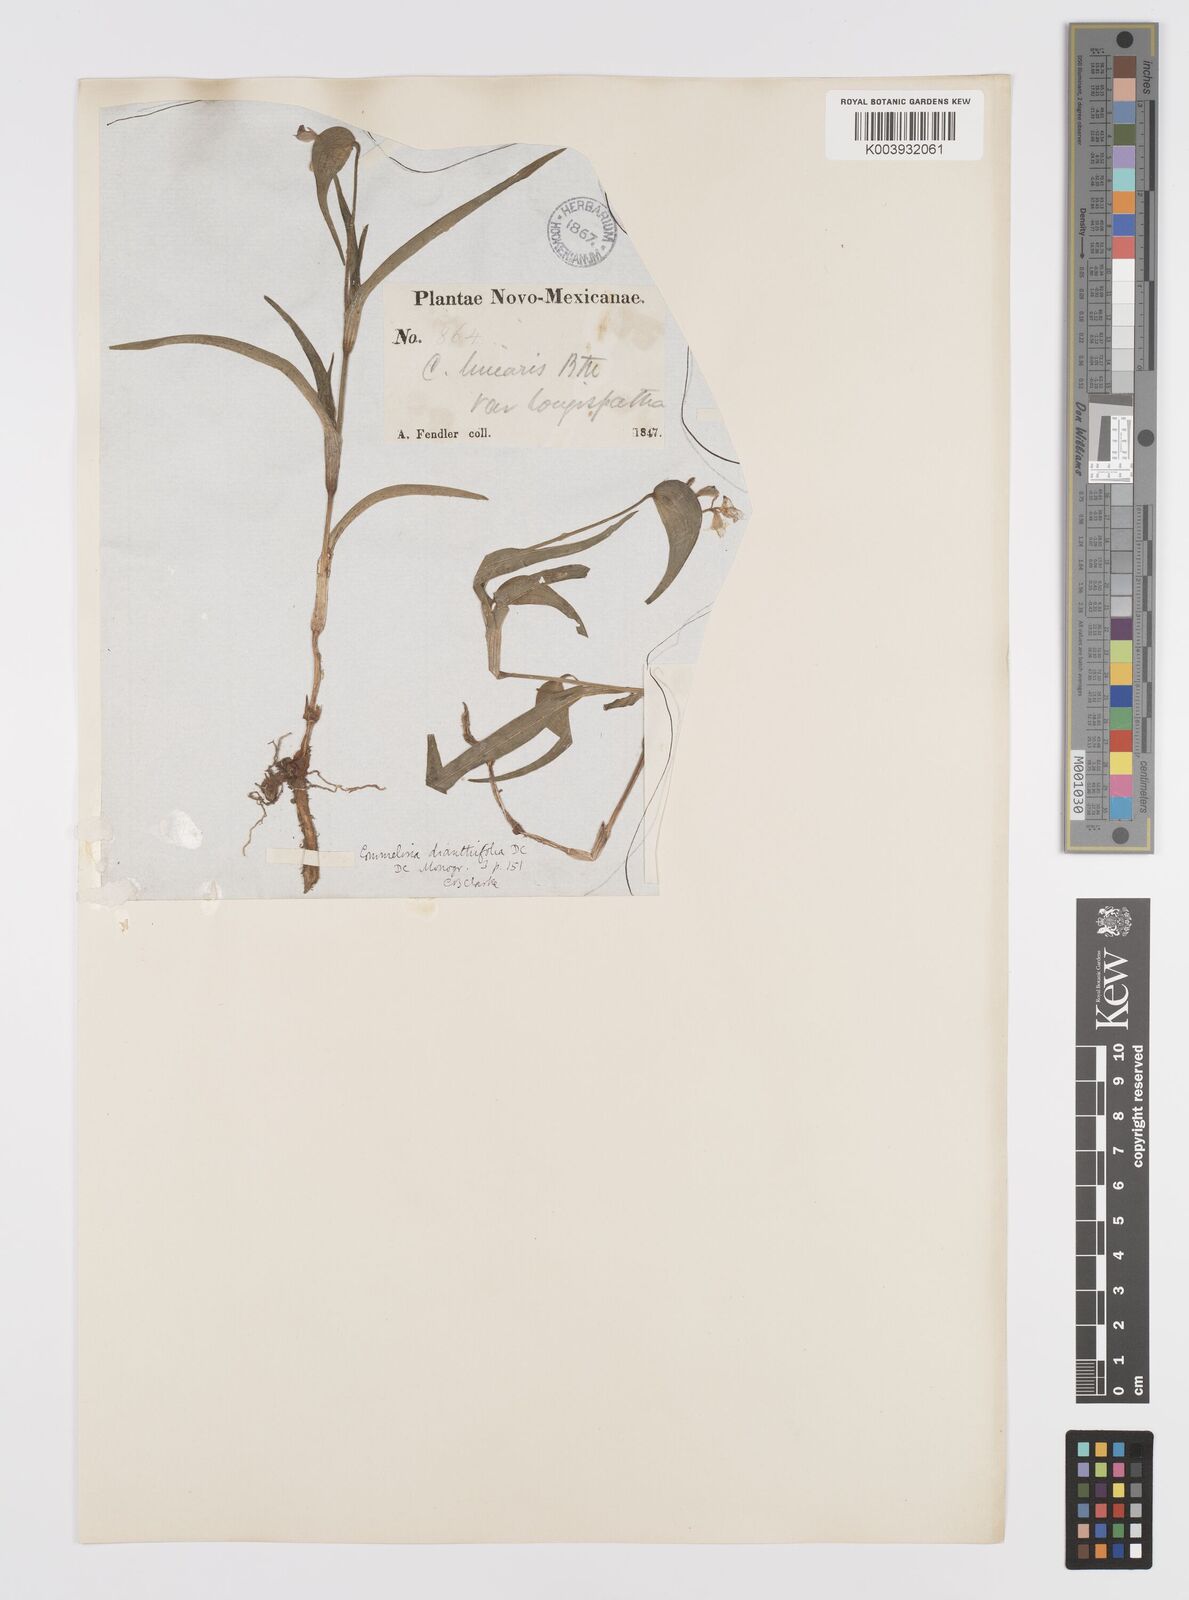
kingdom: Plantae
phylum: Tracheophyta
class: Liliopsida
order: Commelinales
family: Commelinaceae
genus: Commelina
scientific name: Commelina dianthifolia
